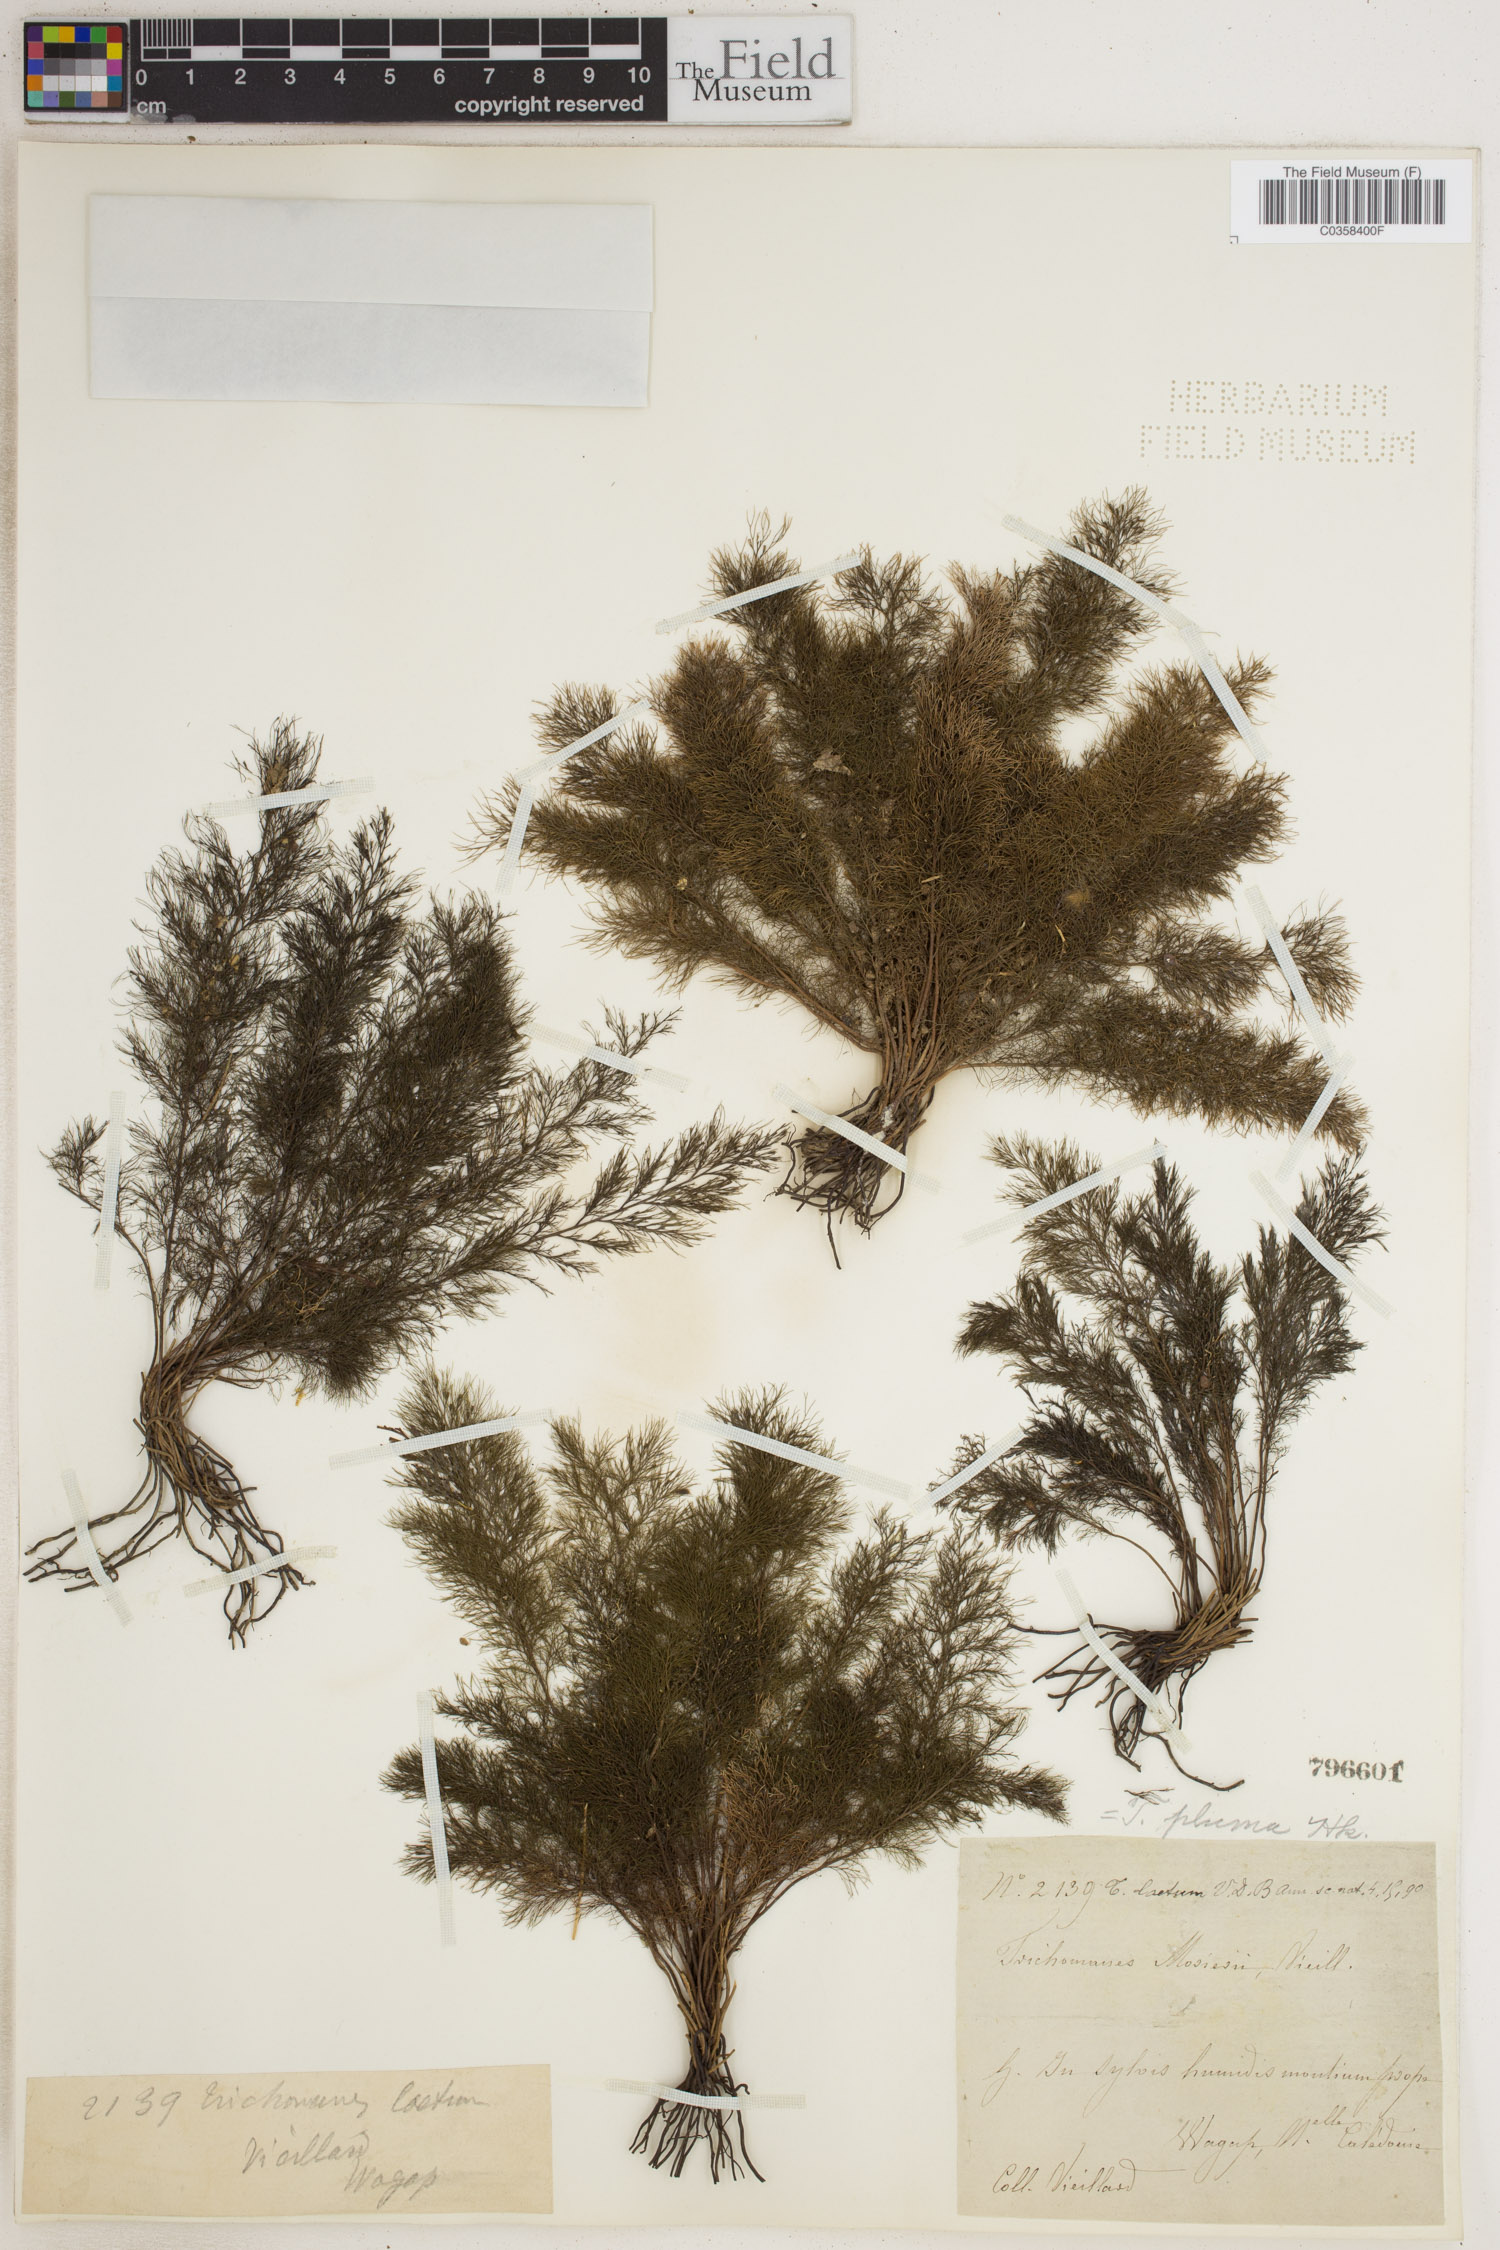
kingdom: Plantae
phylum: Tracheophyta
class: Polypodiopsida
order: Hymenophyllales
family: Hymenophyllaceae
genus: Abrodictyum
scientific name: Abrodictyum pluma
